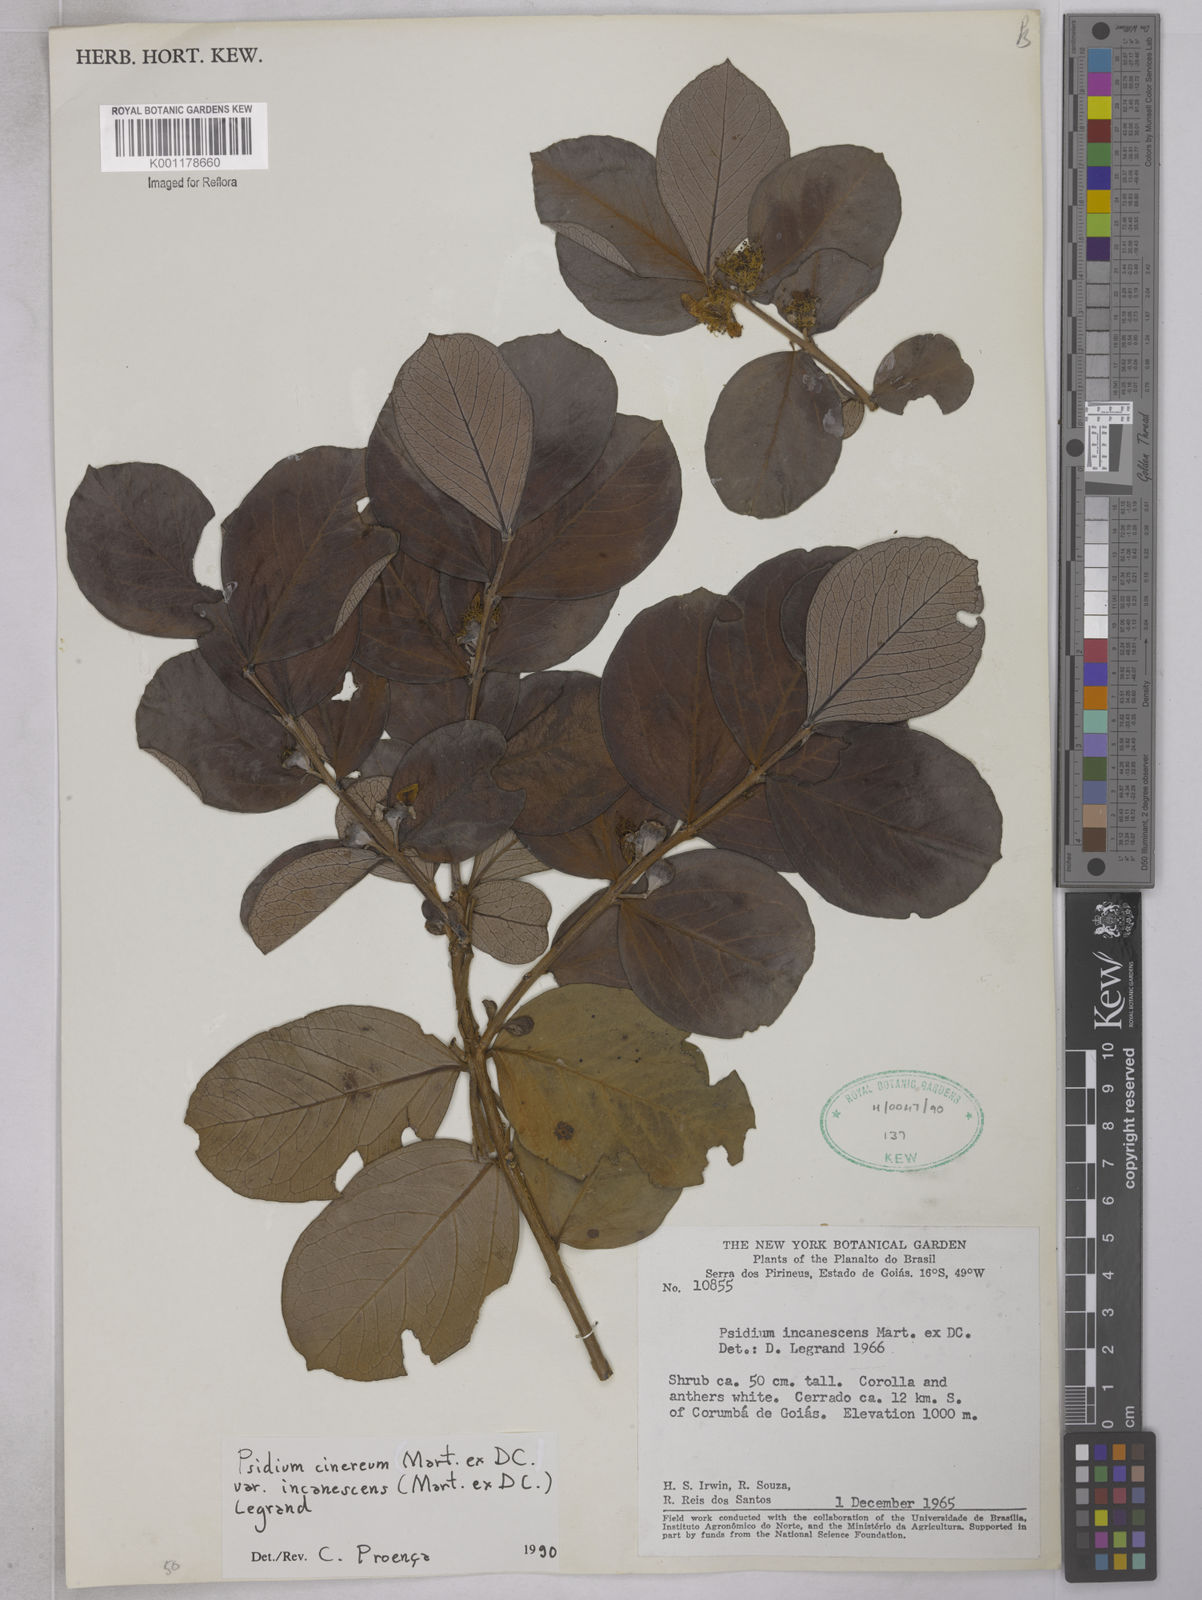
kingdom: Plantae
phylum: Tracheophyta
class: Magnoliopsida
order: Myrtales
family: Myrtaceae
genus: Psidium
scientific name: Psidium grandifolium
